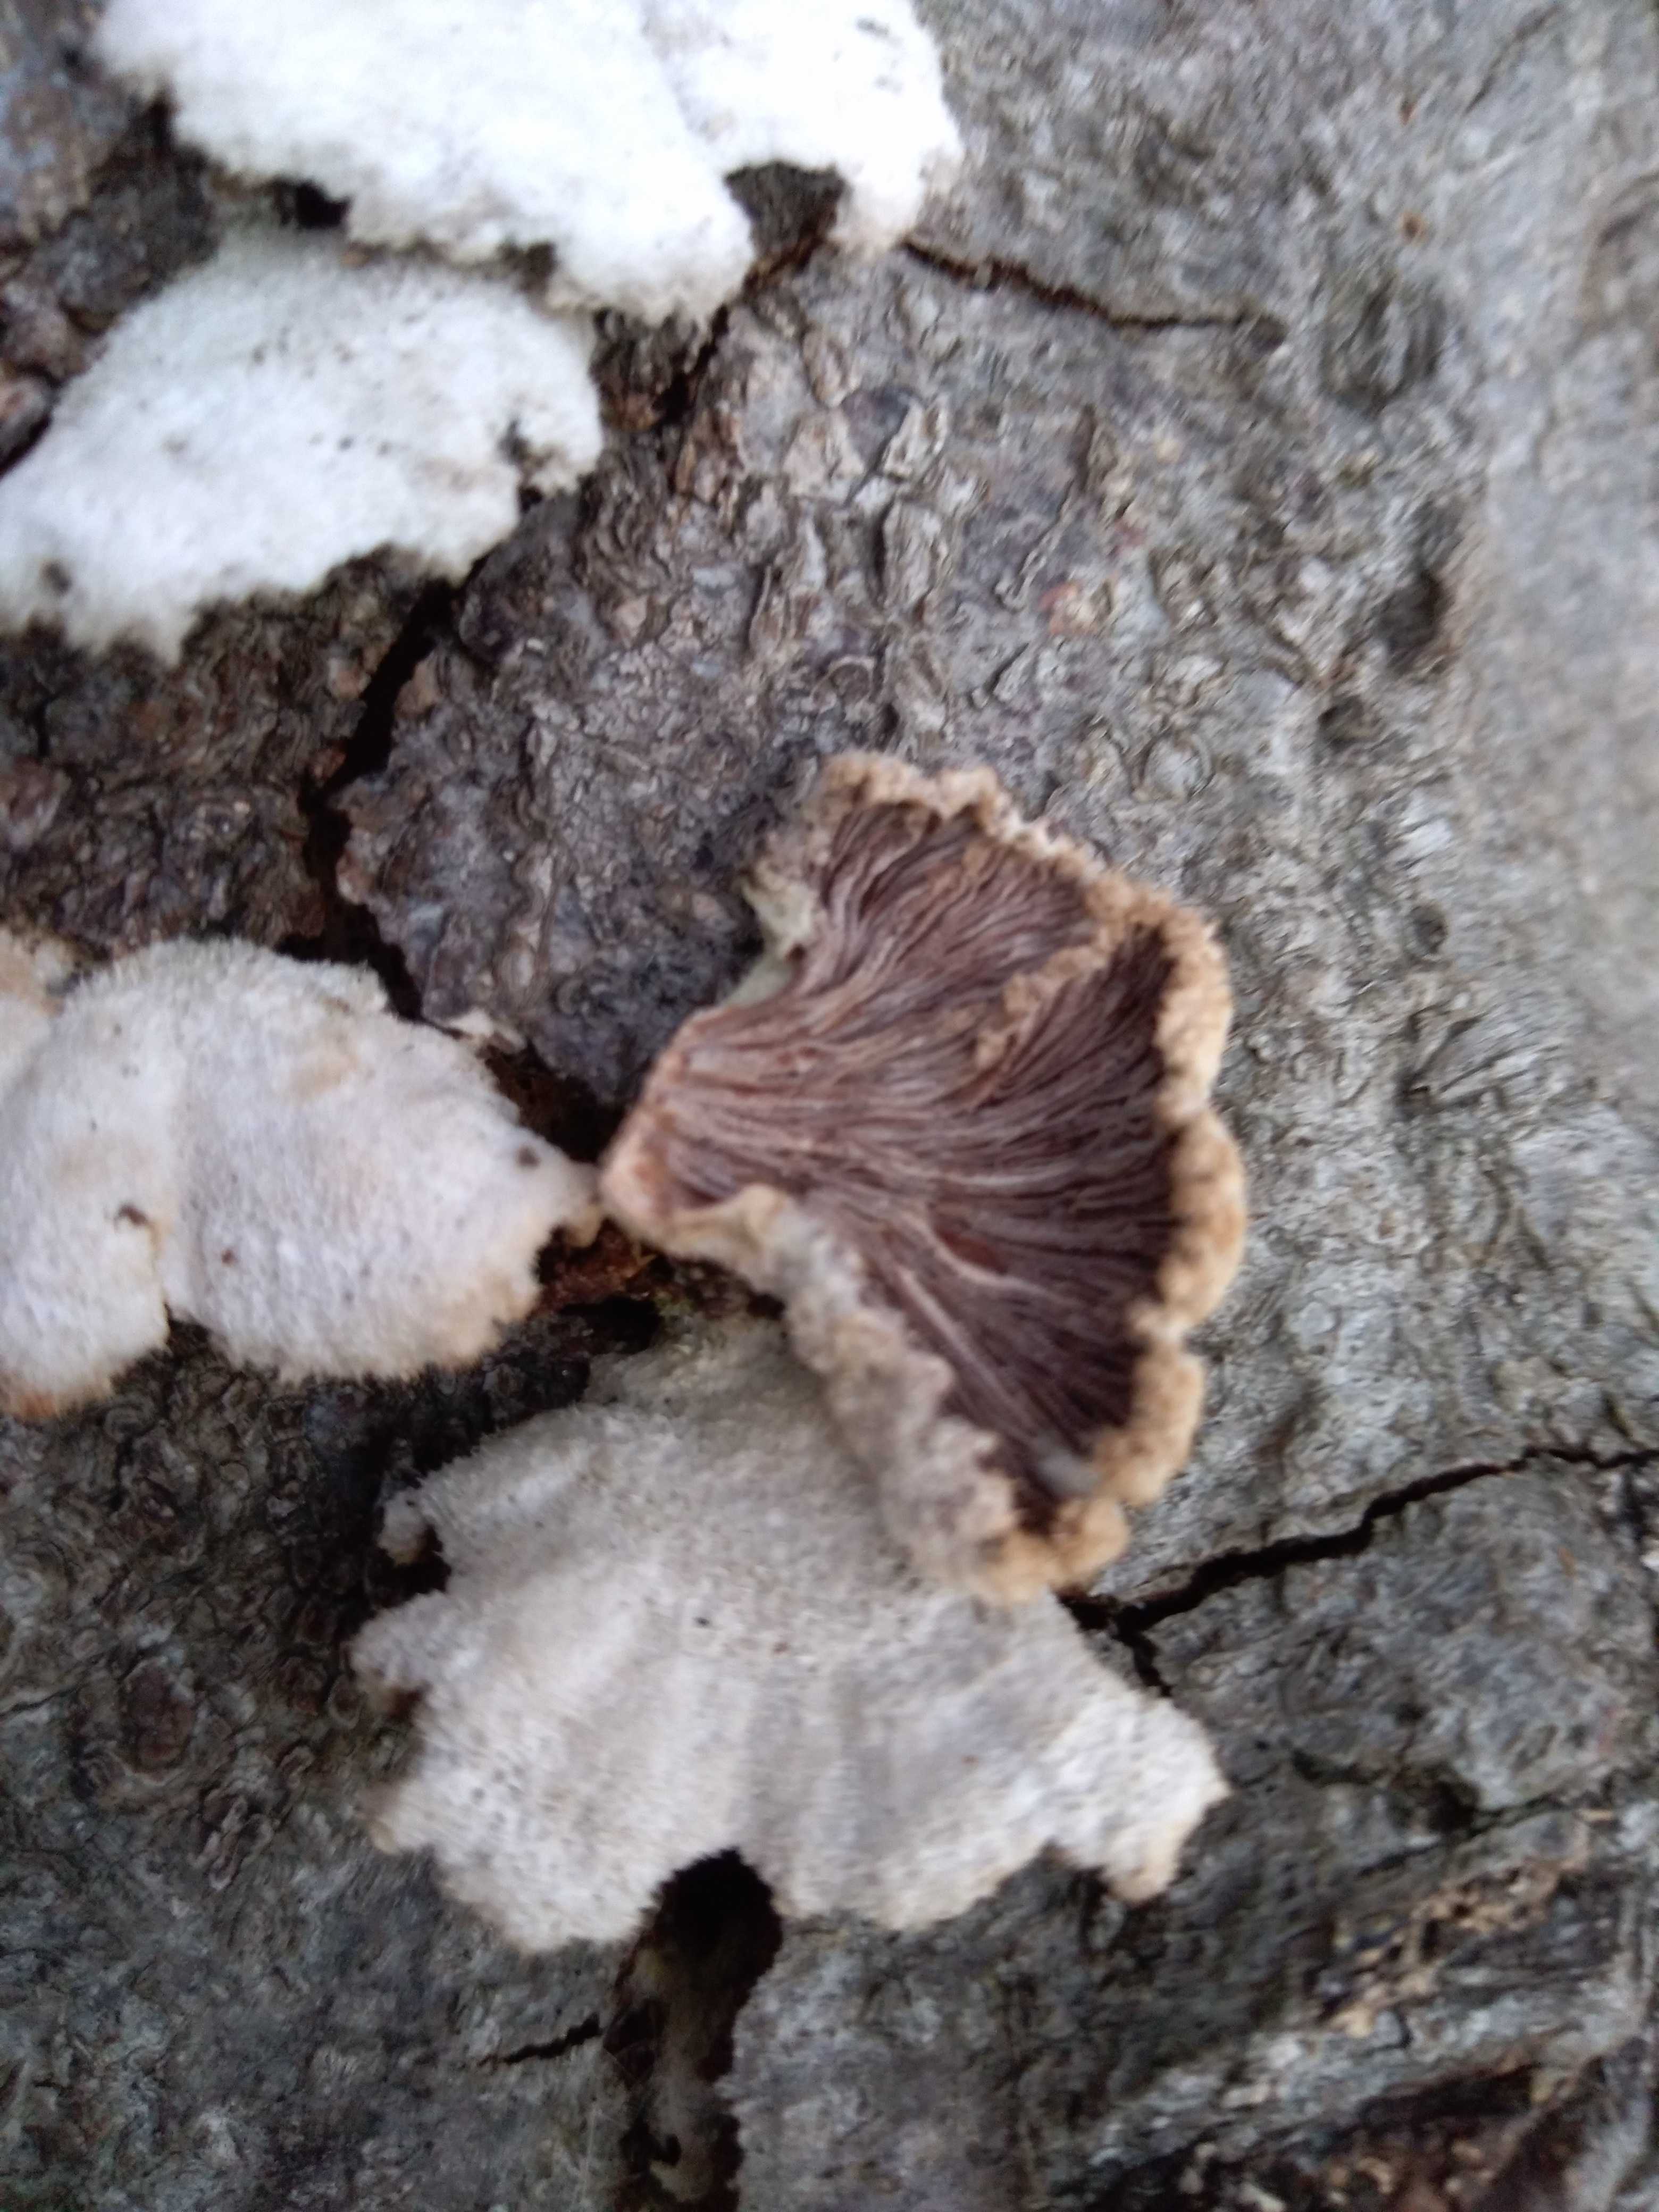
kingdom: Fungi
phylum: Basidiomycota
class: Agaricomycetes
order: Agaricales
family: Schizophyllaceae
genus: Schizophyllum
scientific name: Schizophyllum commune
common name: kløvblad
